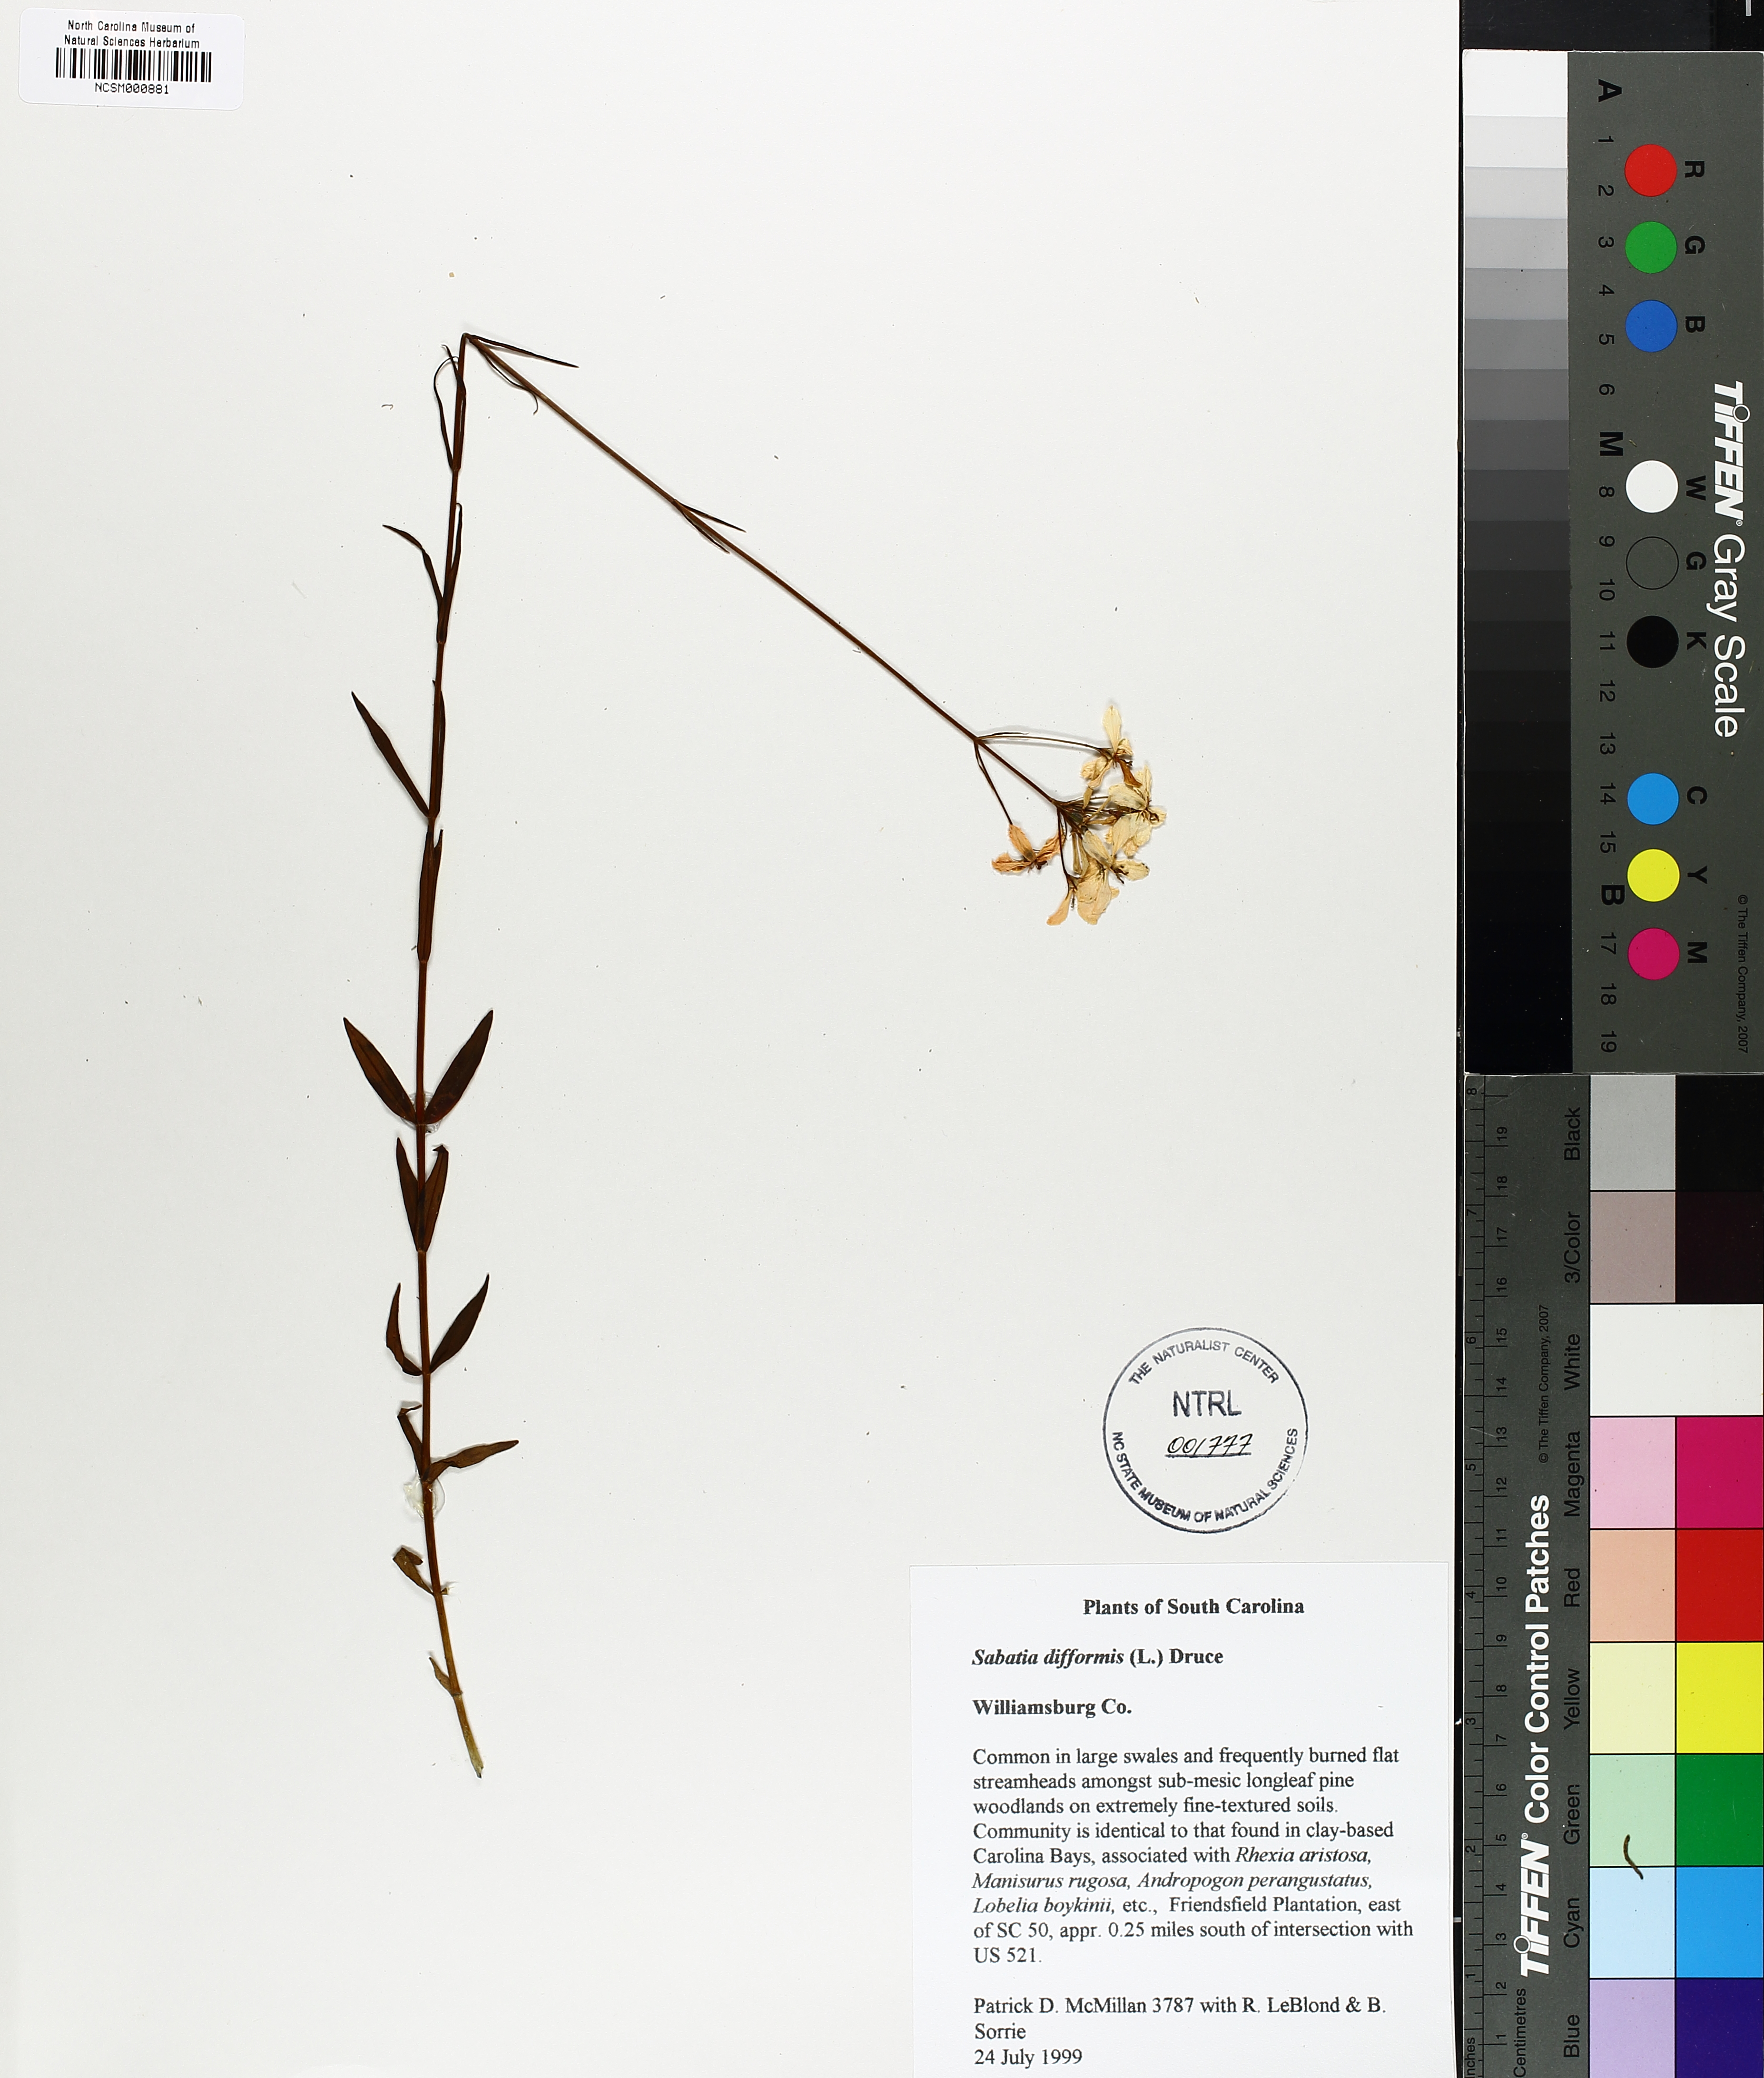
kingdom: Plantae
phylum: Tracheophyta
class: Magnoliopsida
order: Gentianales
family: Gentianaceae
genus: Sabatia
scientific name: Sabatia difformis
